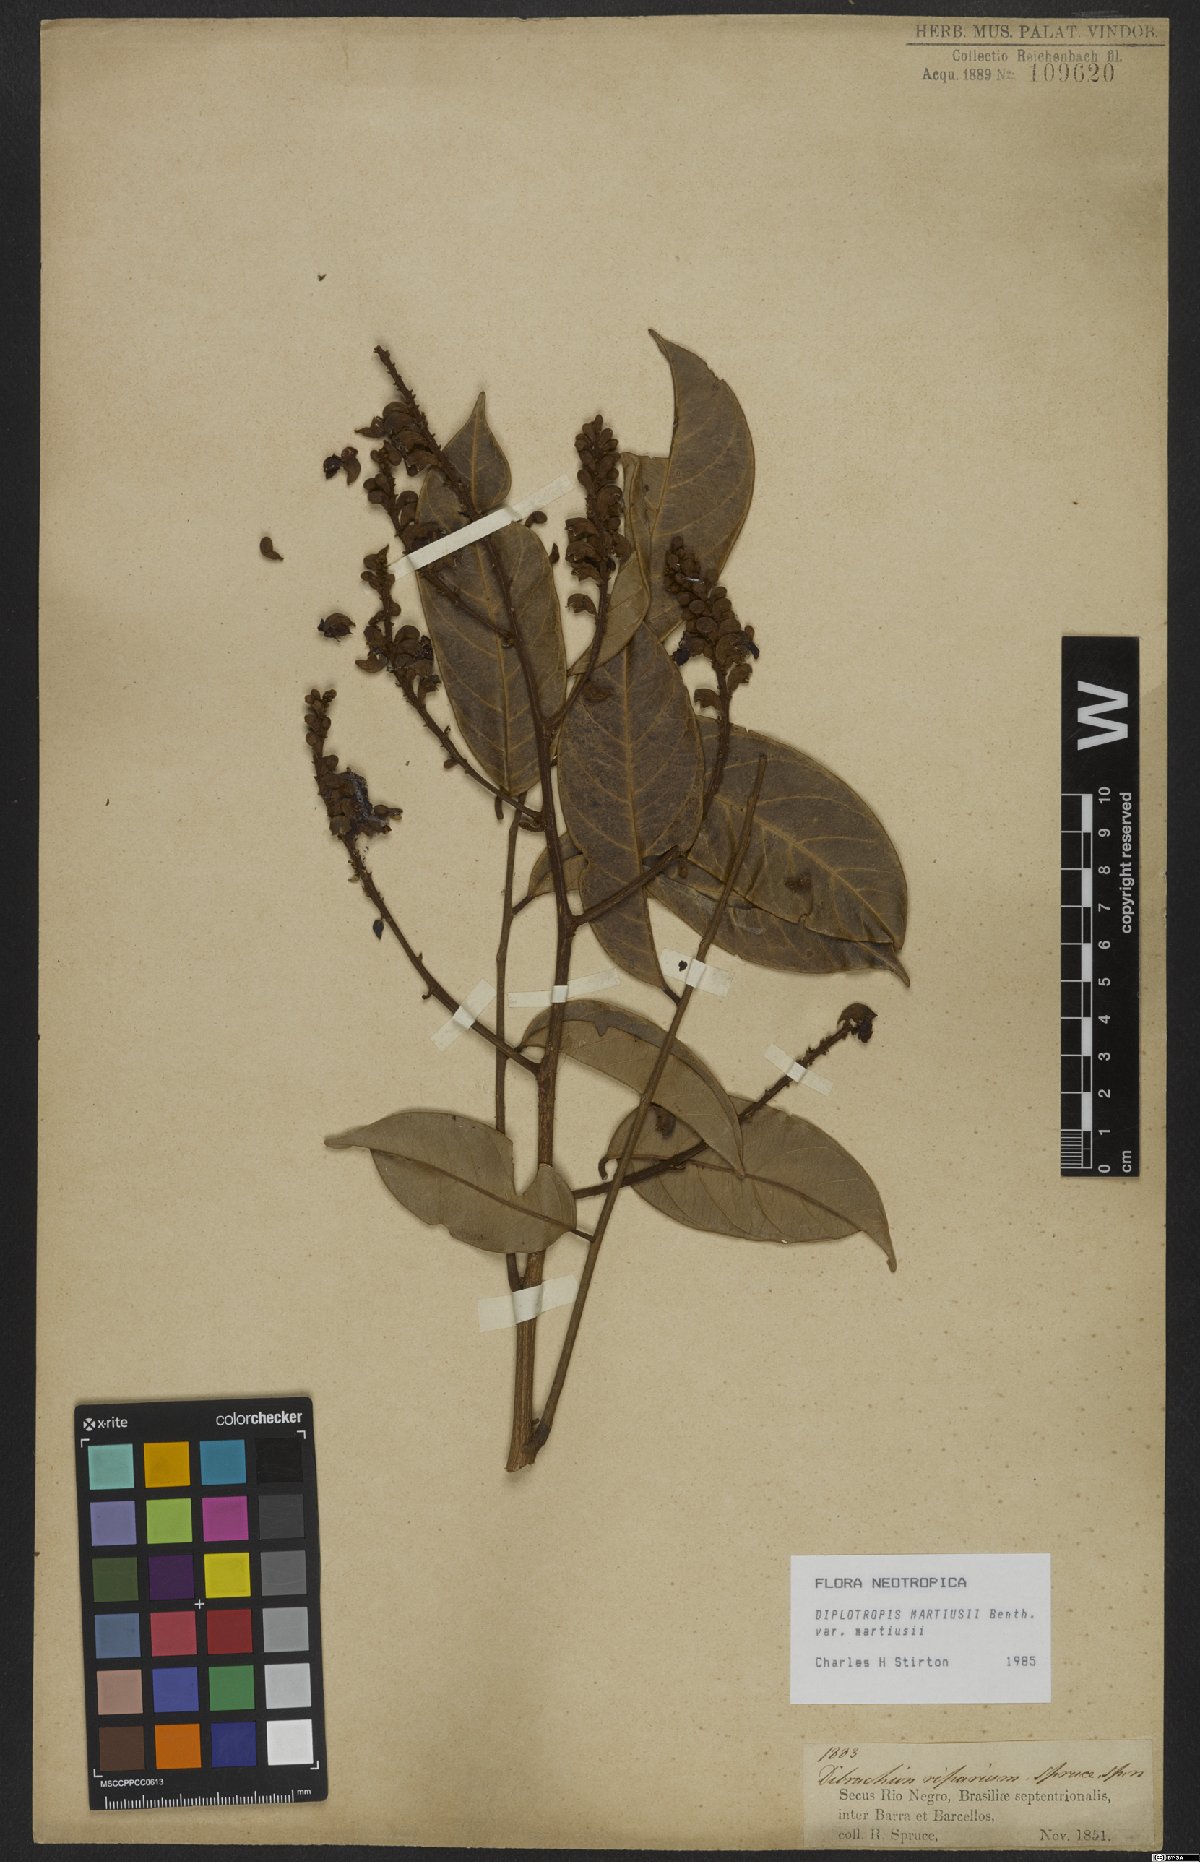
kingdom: Plantae
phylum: Tracheophyta
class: Magnoliopsida
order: Fabales
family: Fabaceae
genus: Diplotropis
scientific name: Diplotropis martiusii
